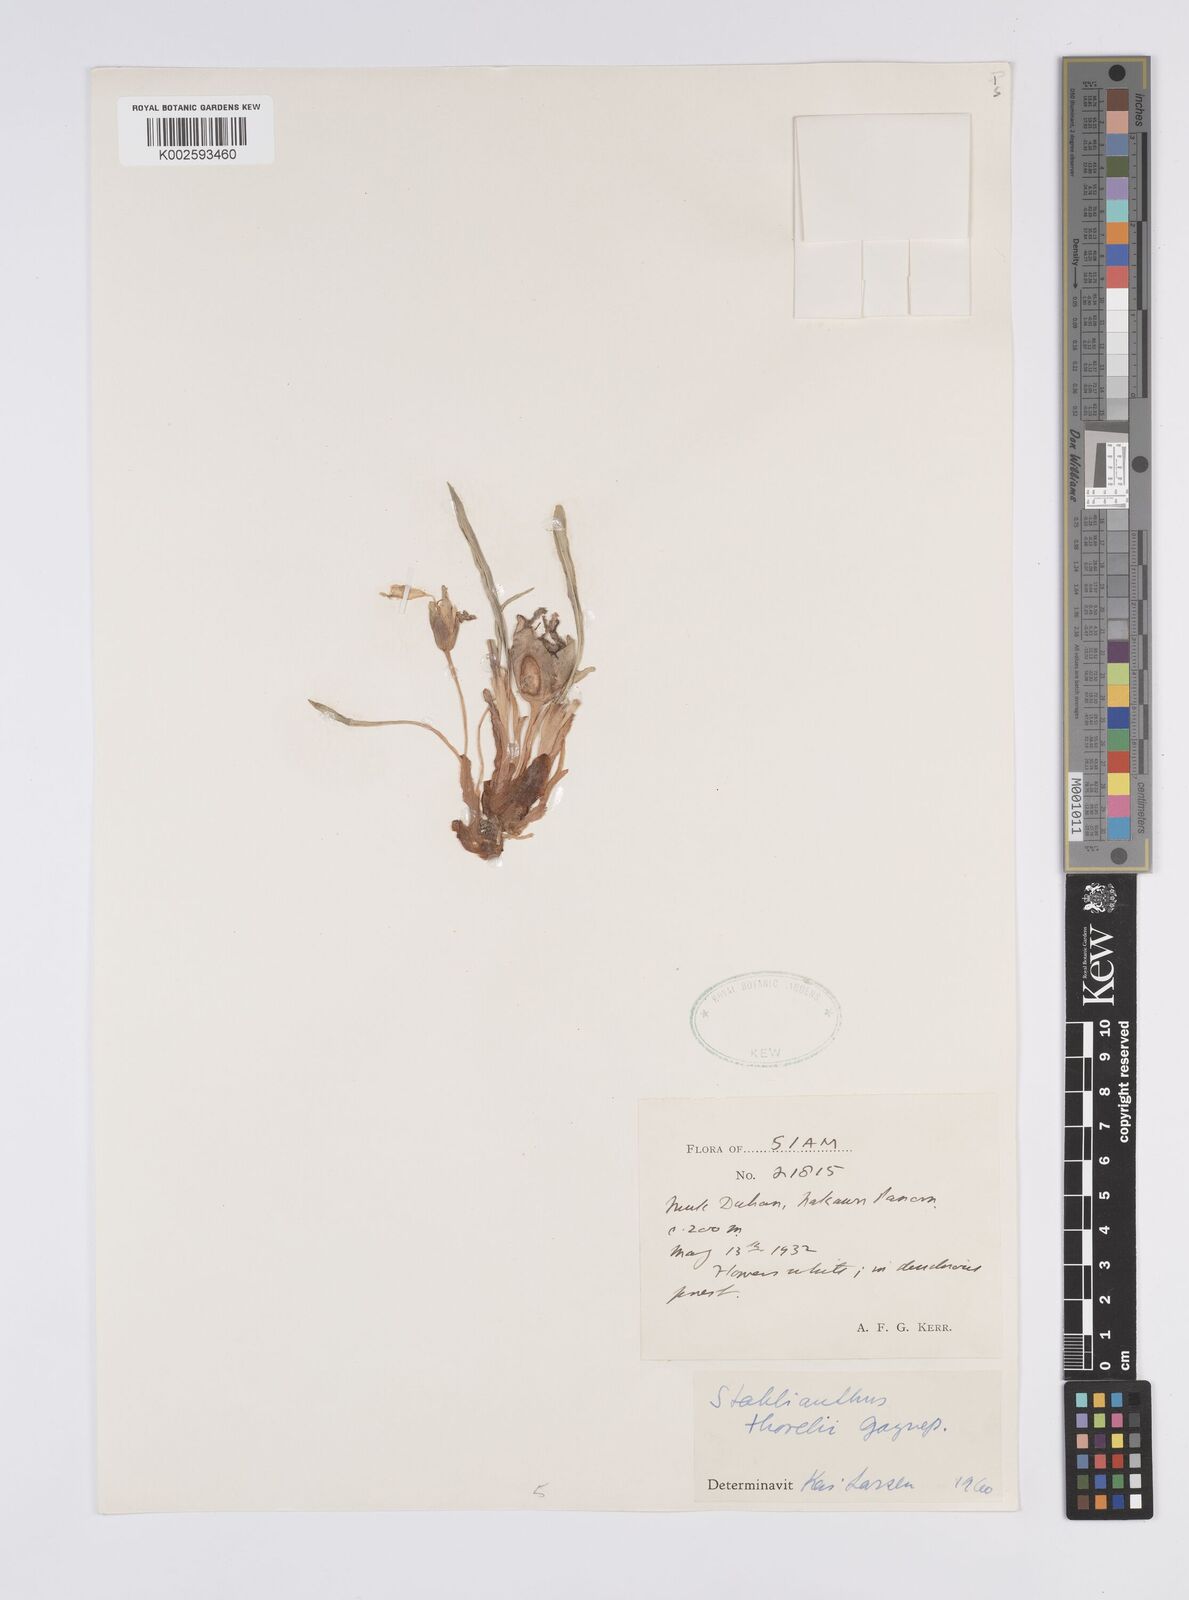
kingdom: Plantae
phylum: Tracheophyta
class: Liliopsida
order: Zingiberales
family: Zingiberaceae
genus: Curcuma
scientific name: Curcuma clovisii
